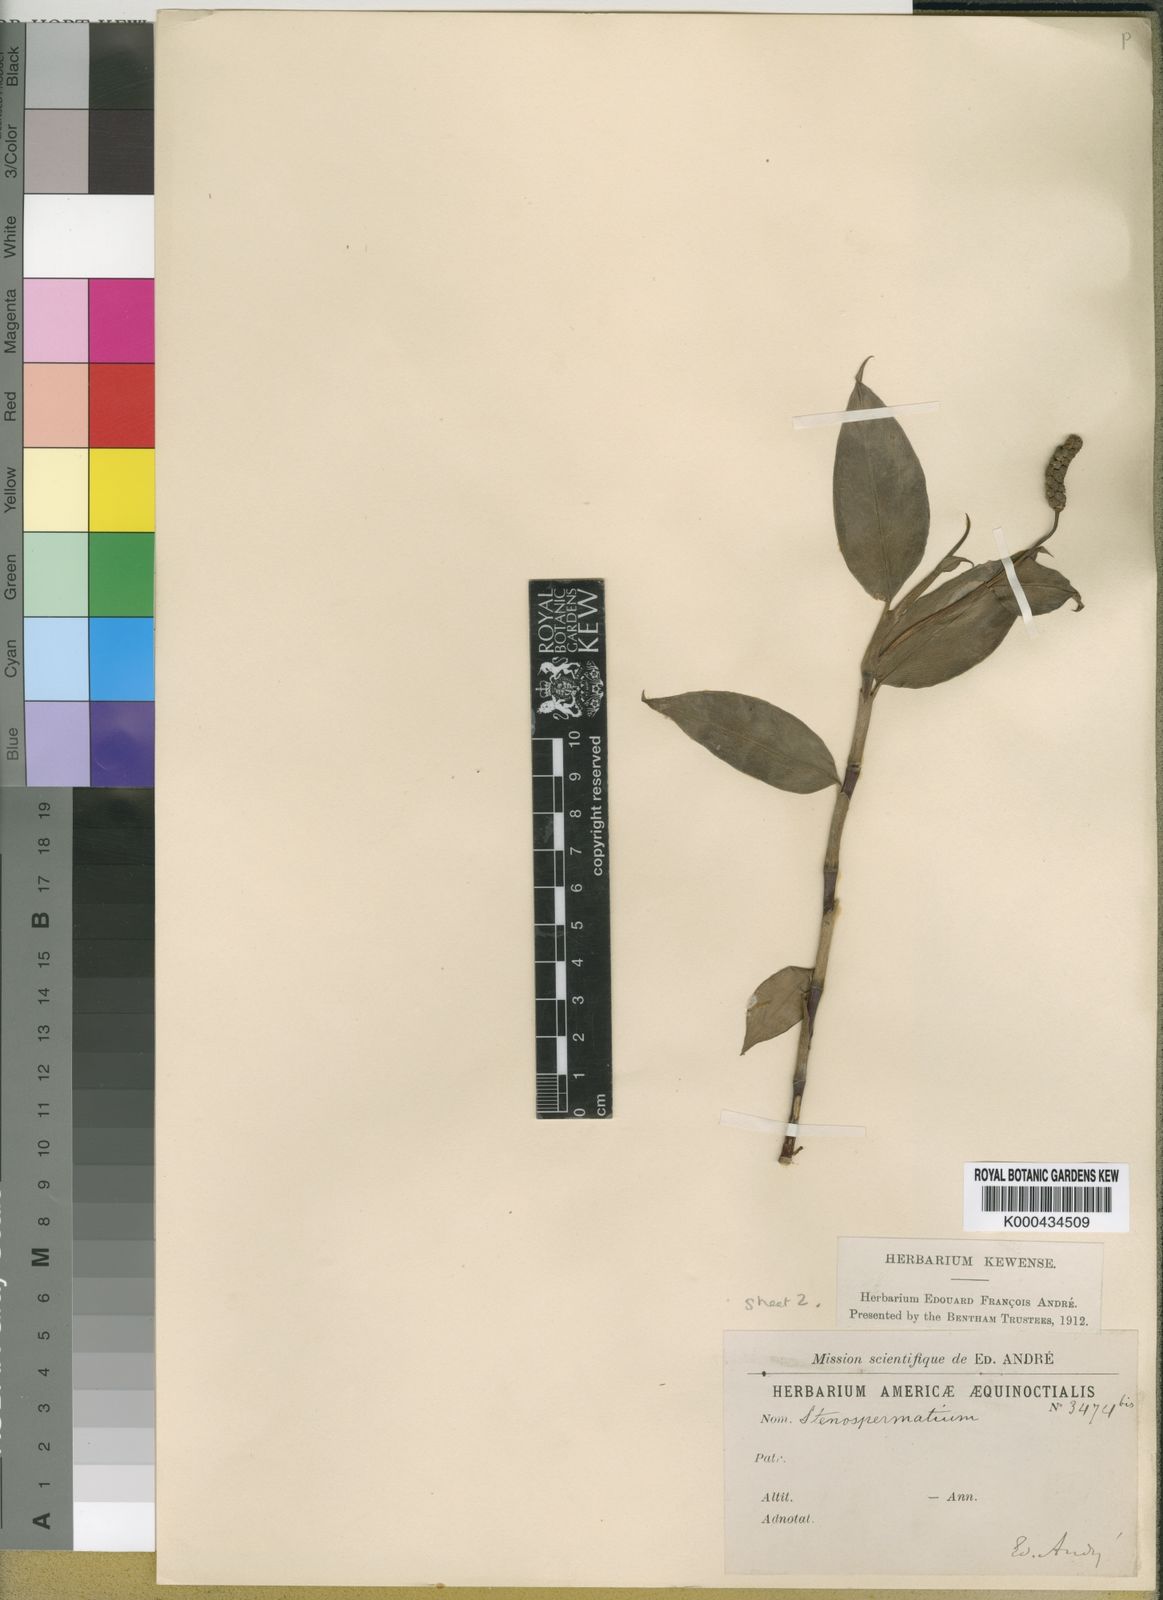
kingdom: Plantae
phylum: Tracheophyta
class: Liliopsida
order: Alismatales
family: Araceae
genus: Stenospermation
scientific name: Stenospermation andreanum
